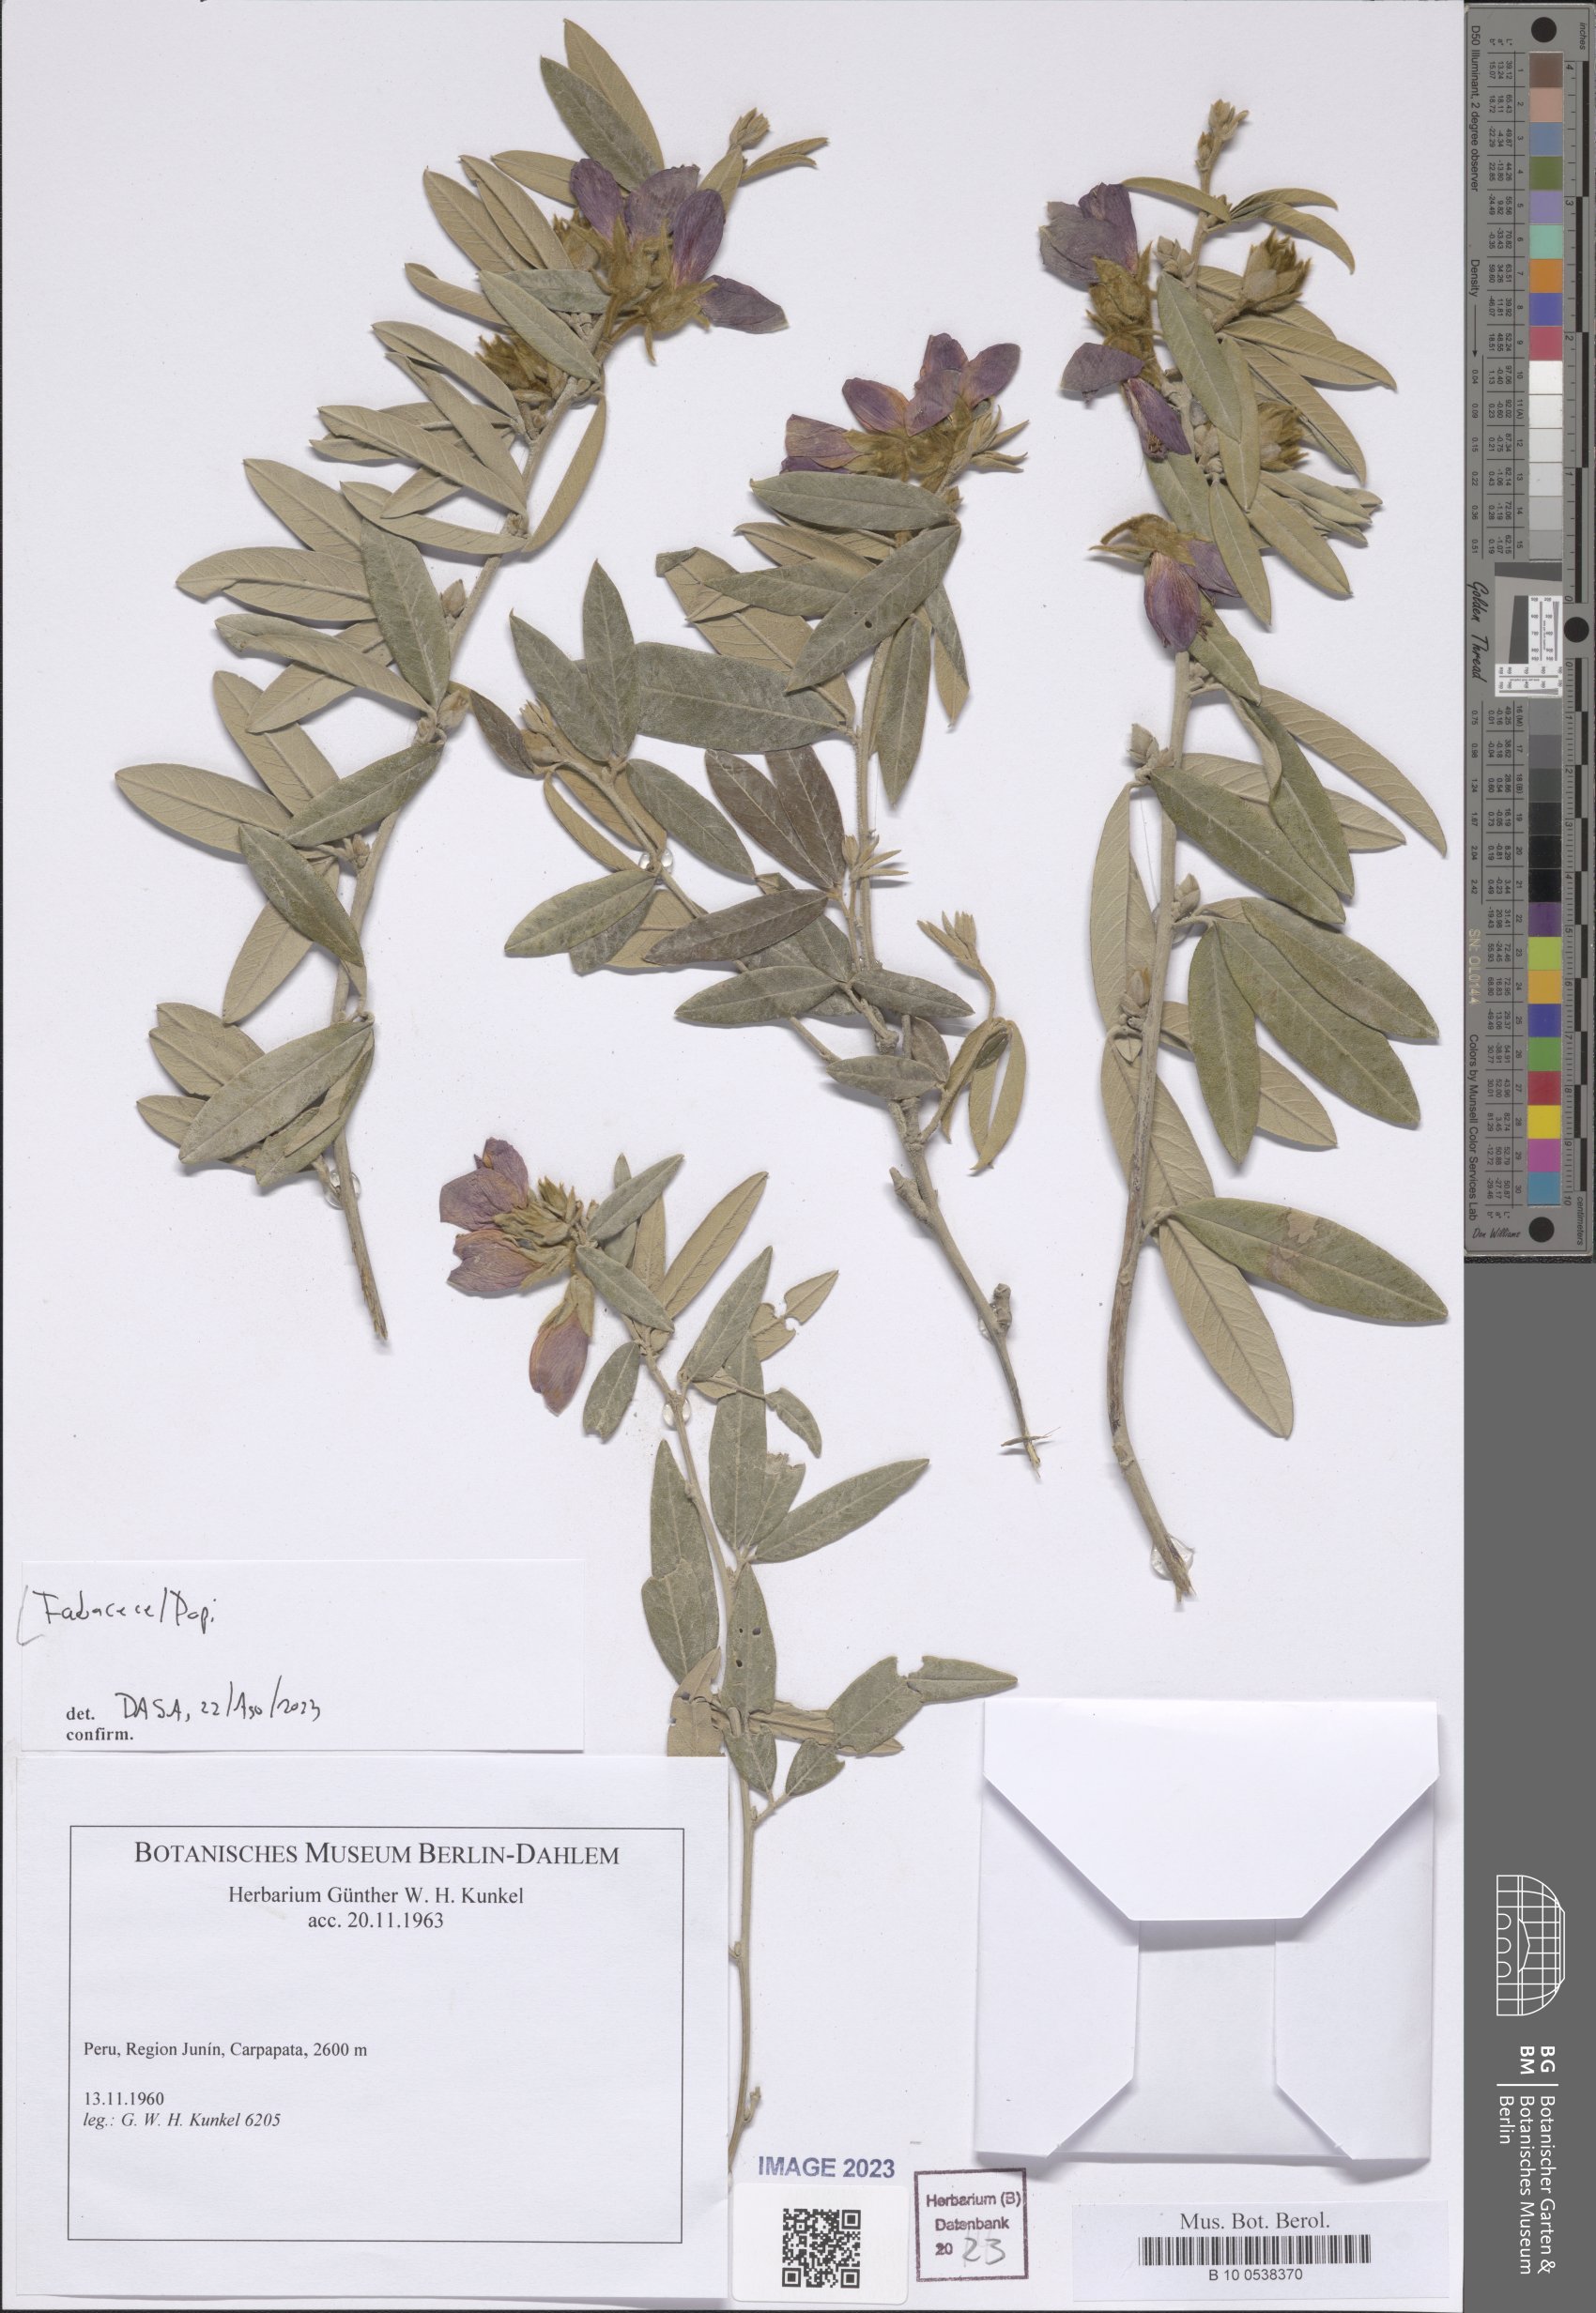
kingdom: Plantae
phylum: Tracheophyta
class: Magnoliopsida
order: Fabales
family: Fabaceae
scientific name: Fabaceae
